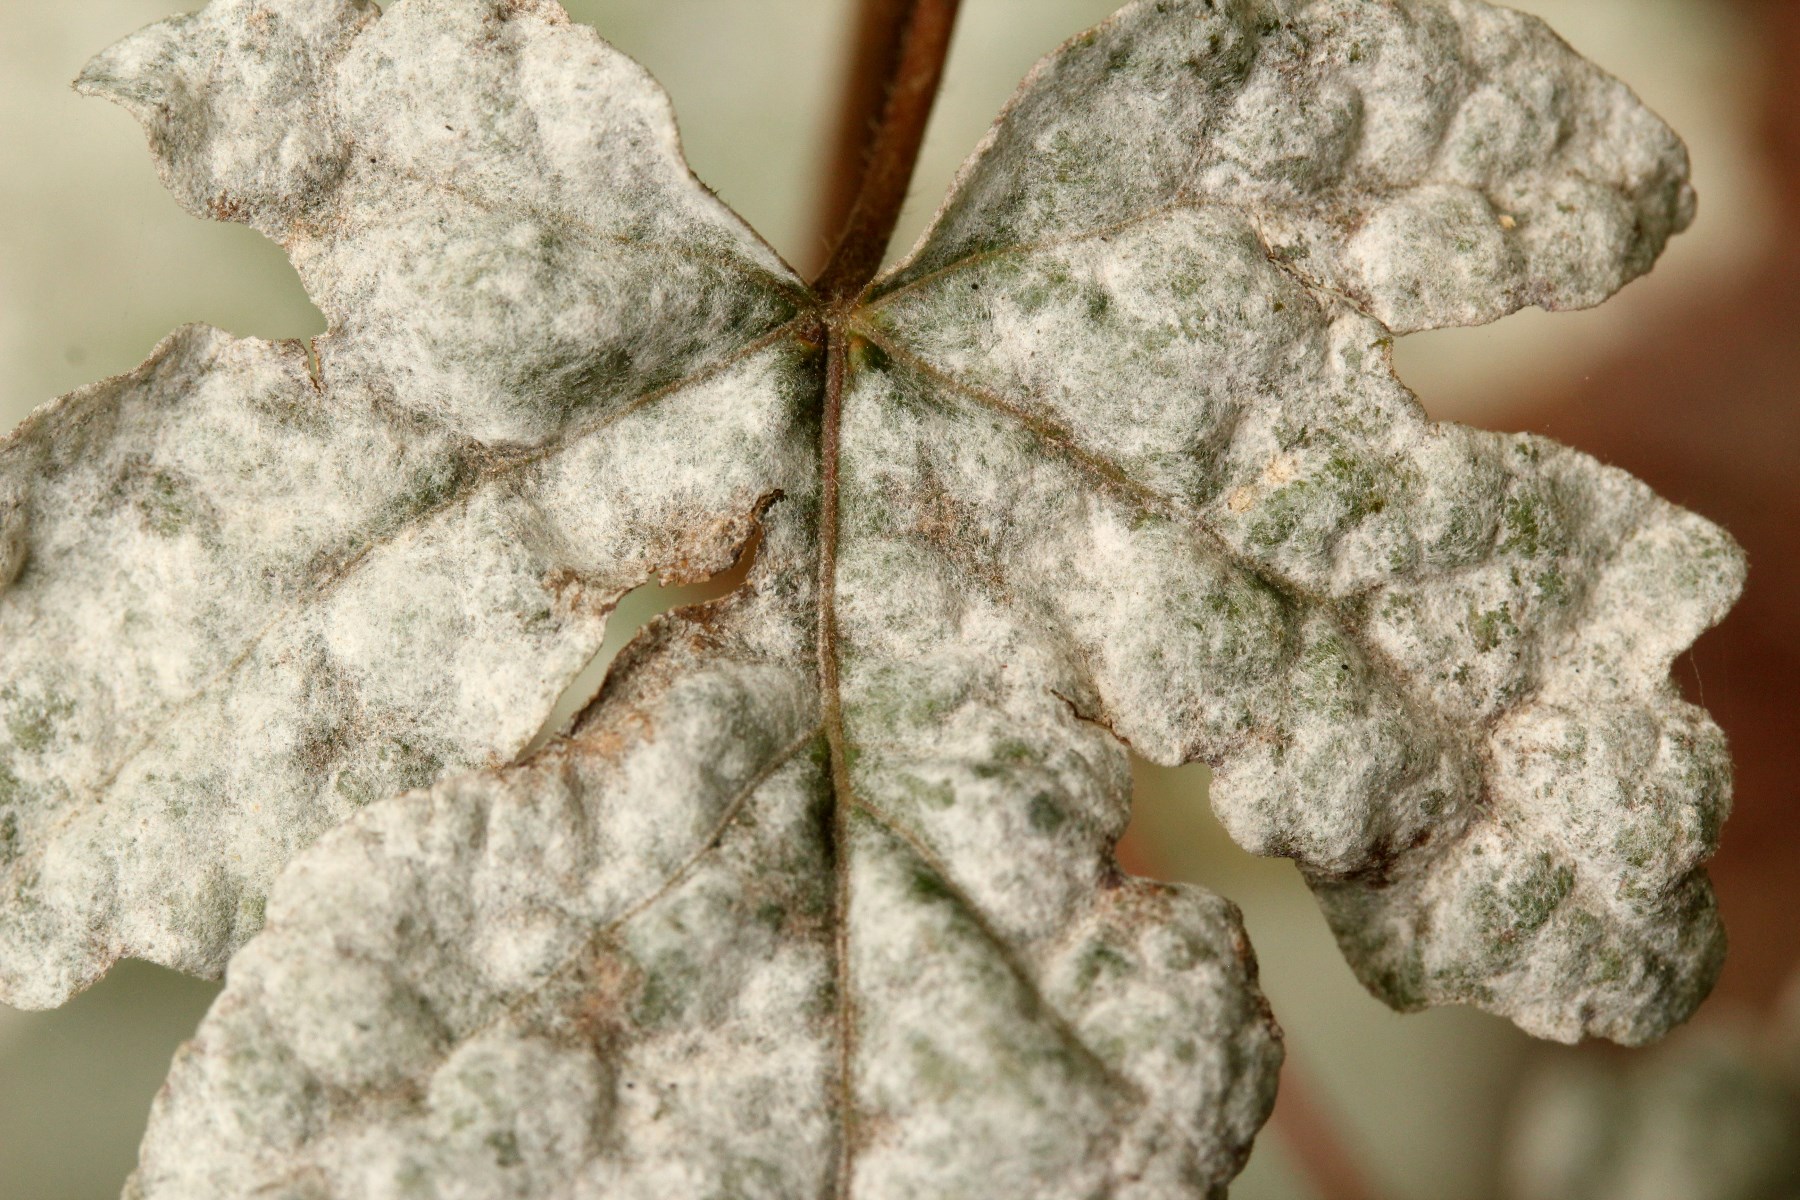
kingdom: Fungi
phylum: Ascomycota
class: Leotiomycetes
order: Helotiales
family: Erysiphaceae
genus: Sawadaea
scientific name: Sawadaea bicornis
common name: Maple mildew
